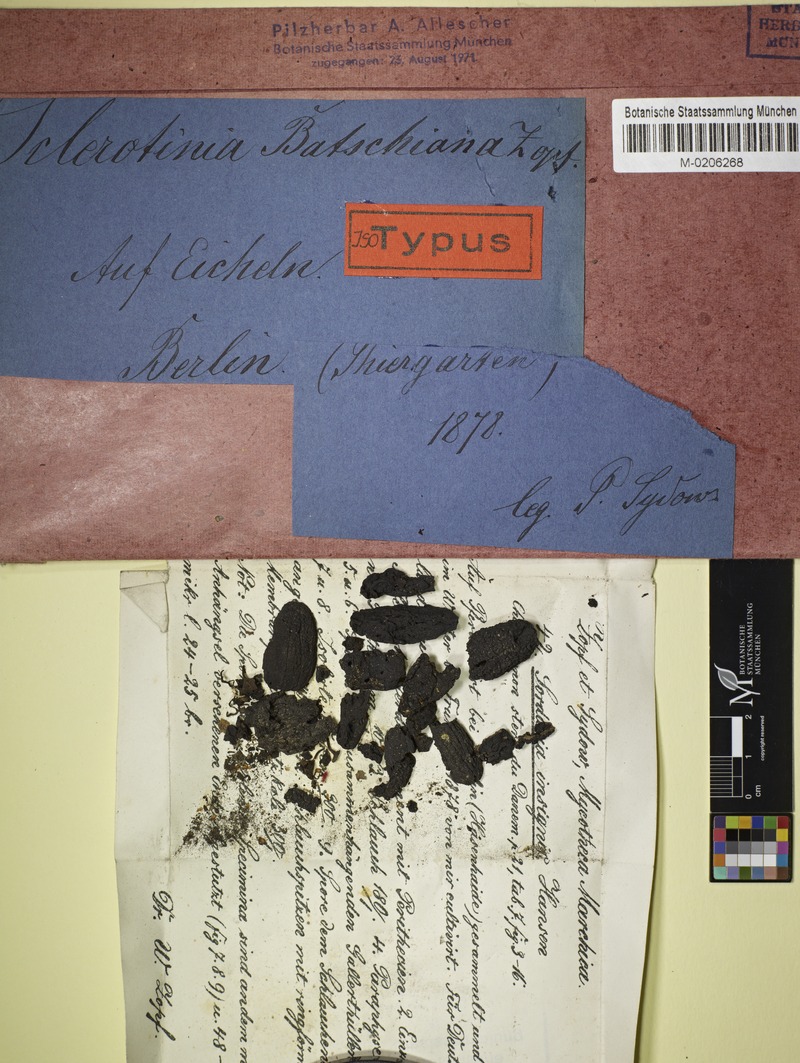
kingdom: Fungi
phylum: Ascomycota
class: Leotiomycetes
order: Helotiales
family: Sclerotiniaceae
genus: Ciboria
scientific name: Ciboria batschiana
